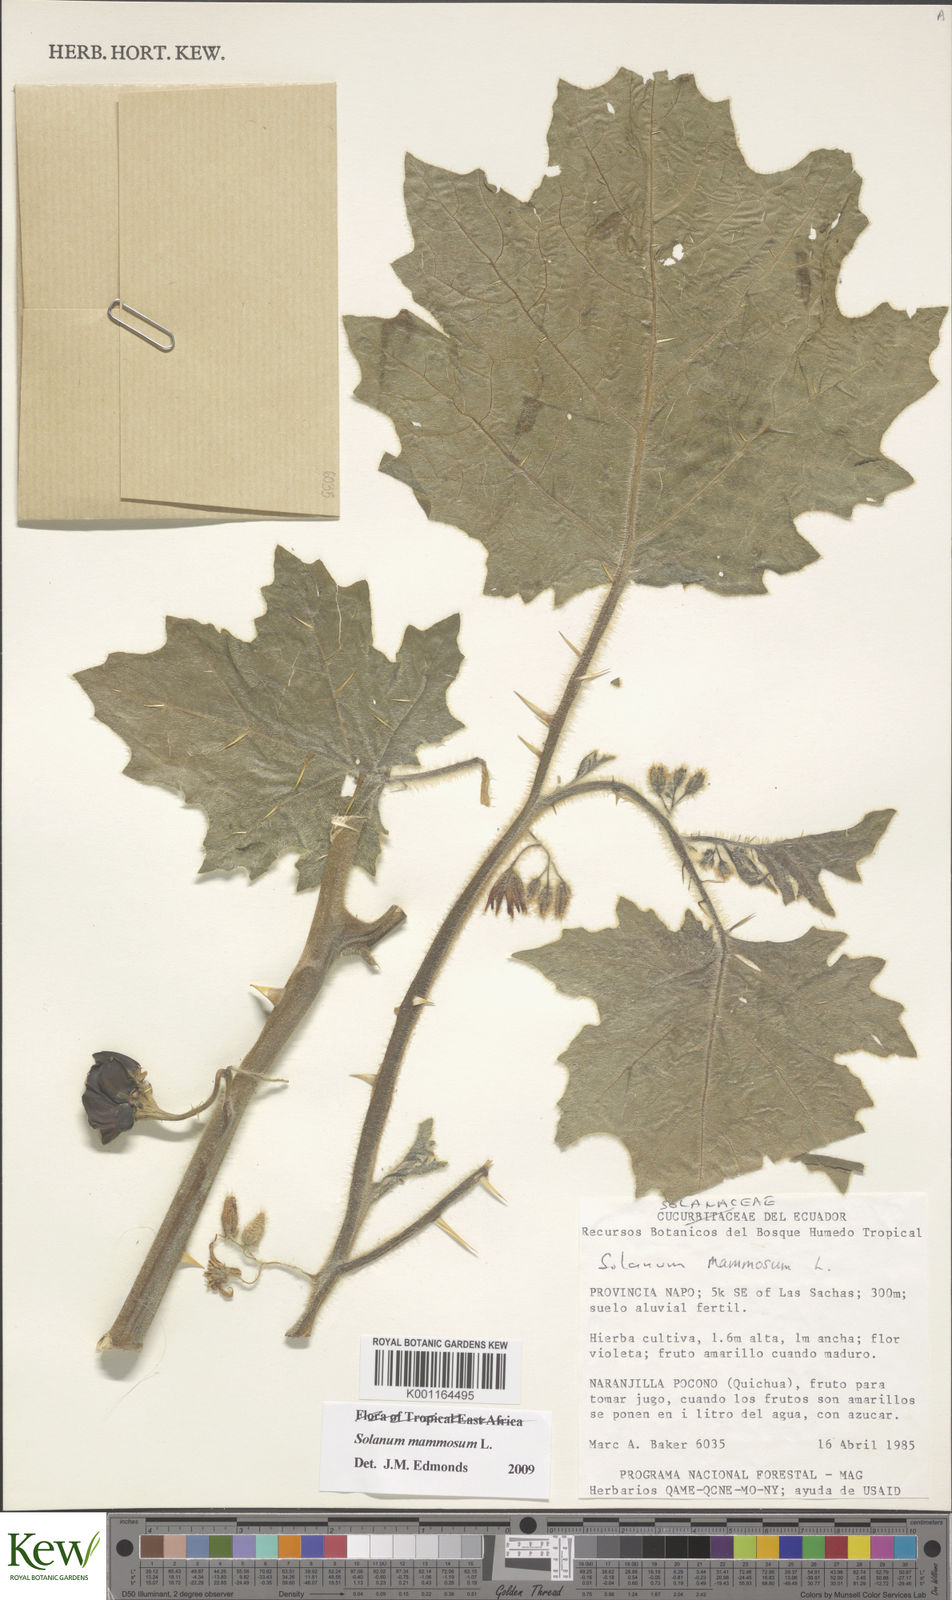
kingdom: Plantae
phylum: Tracheophyta
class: Magnoliopsida
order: Solanales
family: Solanaceae
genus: Solanum
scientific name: Solanum mammosum
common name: Nipple fruit
